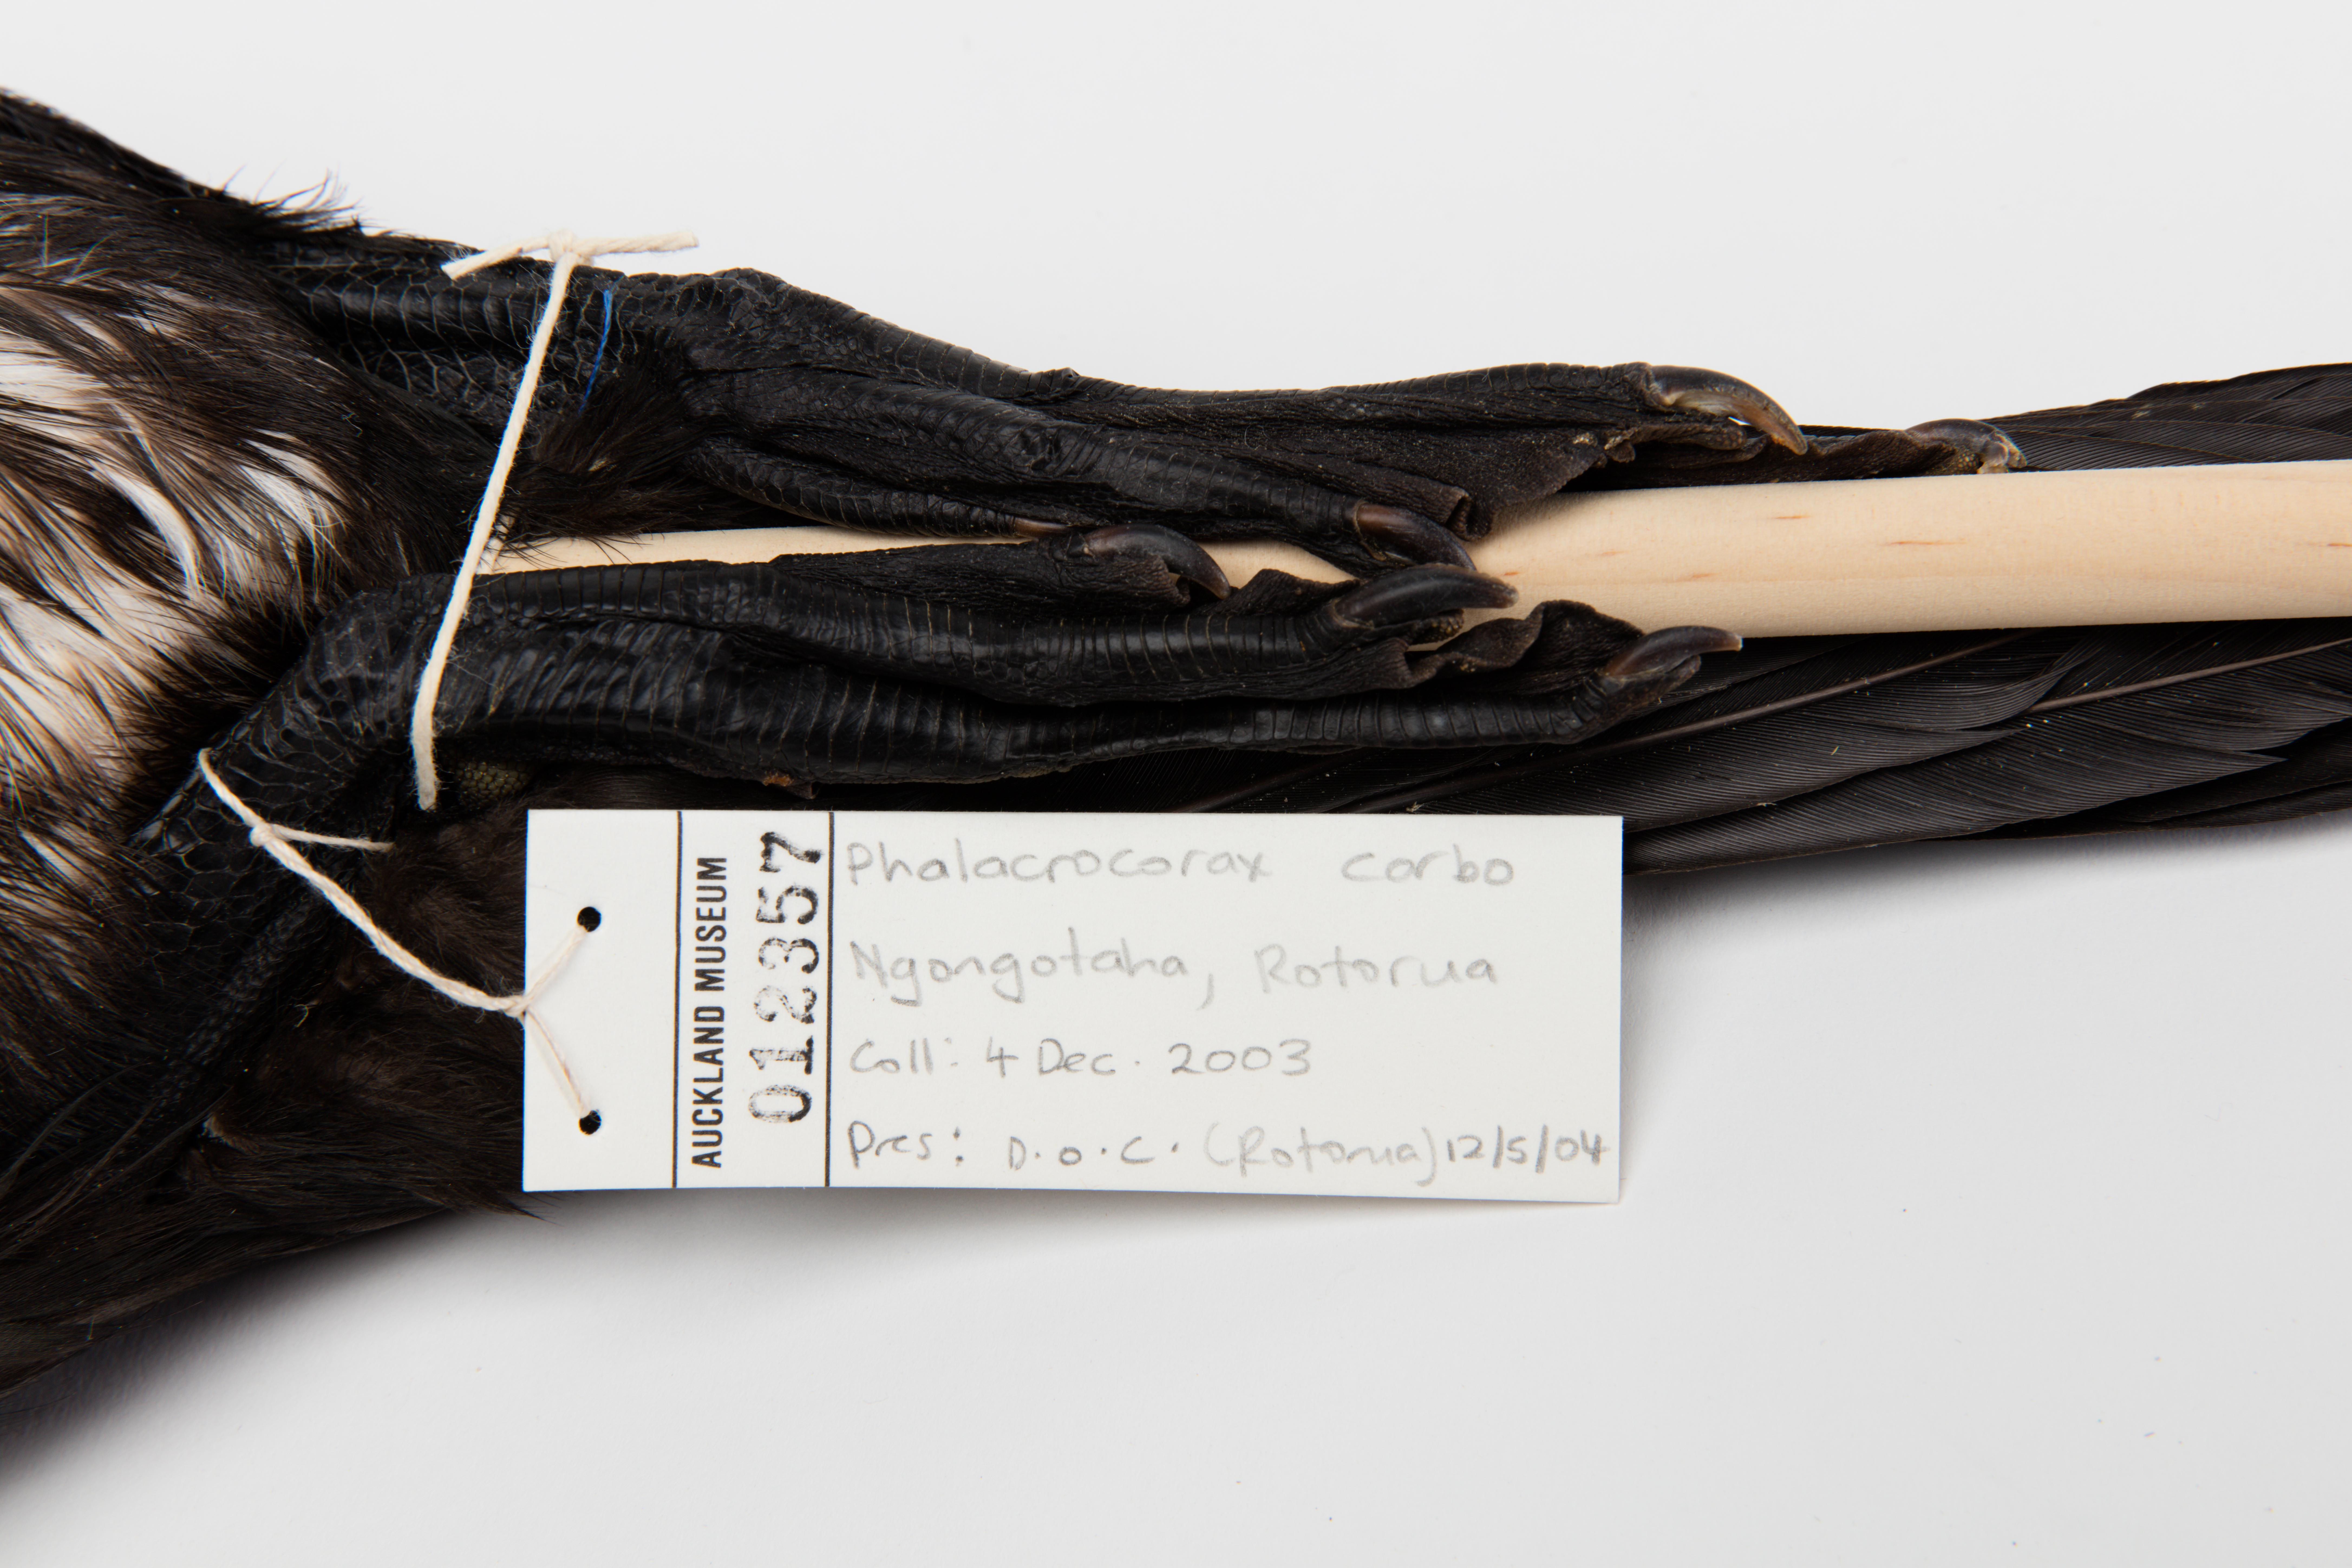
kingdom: Animalia
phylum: Chordata
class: Aves
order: Suliformes
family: Phalacrocoracidae
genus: Phalacrocorax
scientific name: Phalacrocorax carbo
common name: Great cormorant
